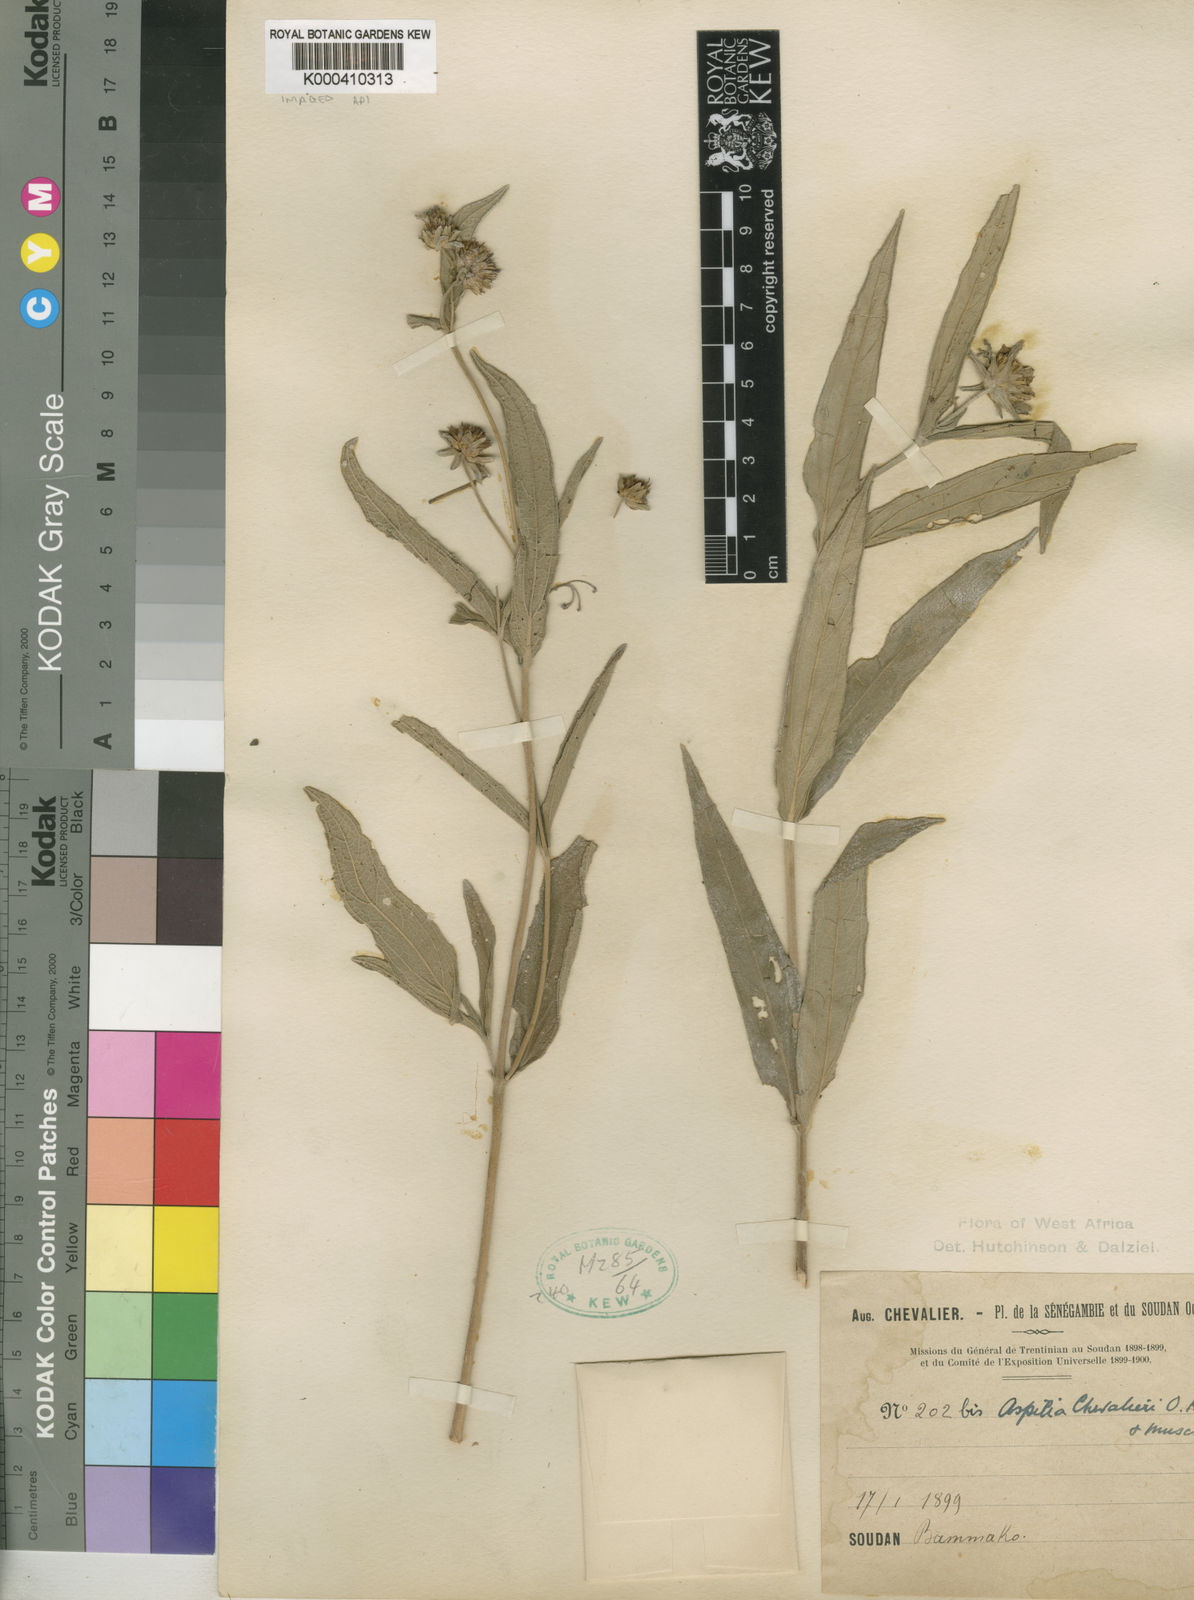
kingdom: Plantae
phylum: Tracheophyta
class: Magnoliopsida
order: Asterales
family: Asteraceae
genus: Aspilia
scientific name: Aspilia chevalieri
